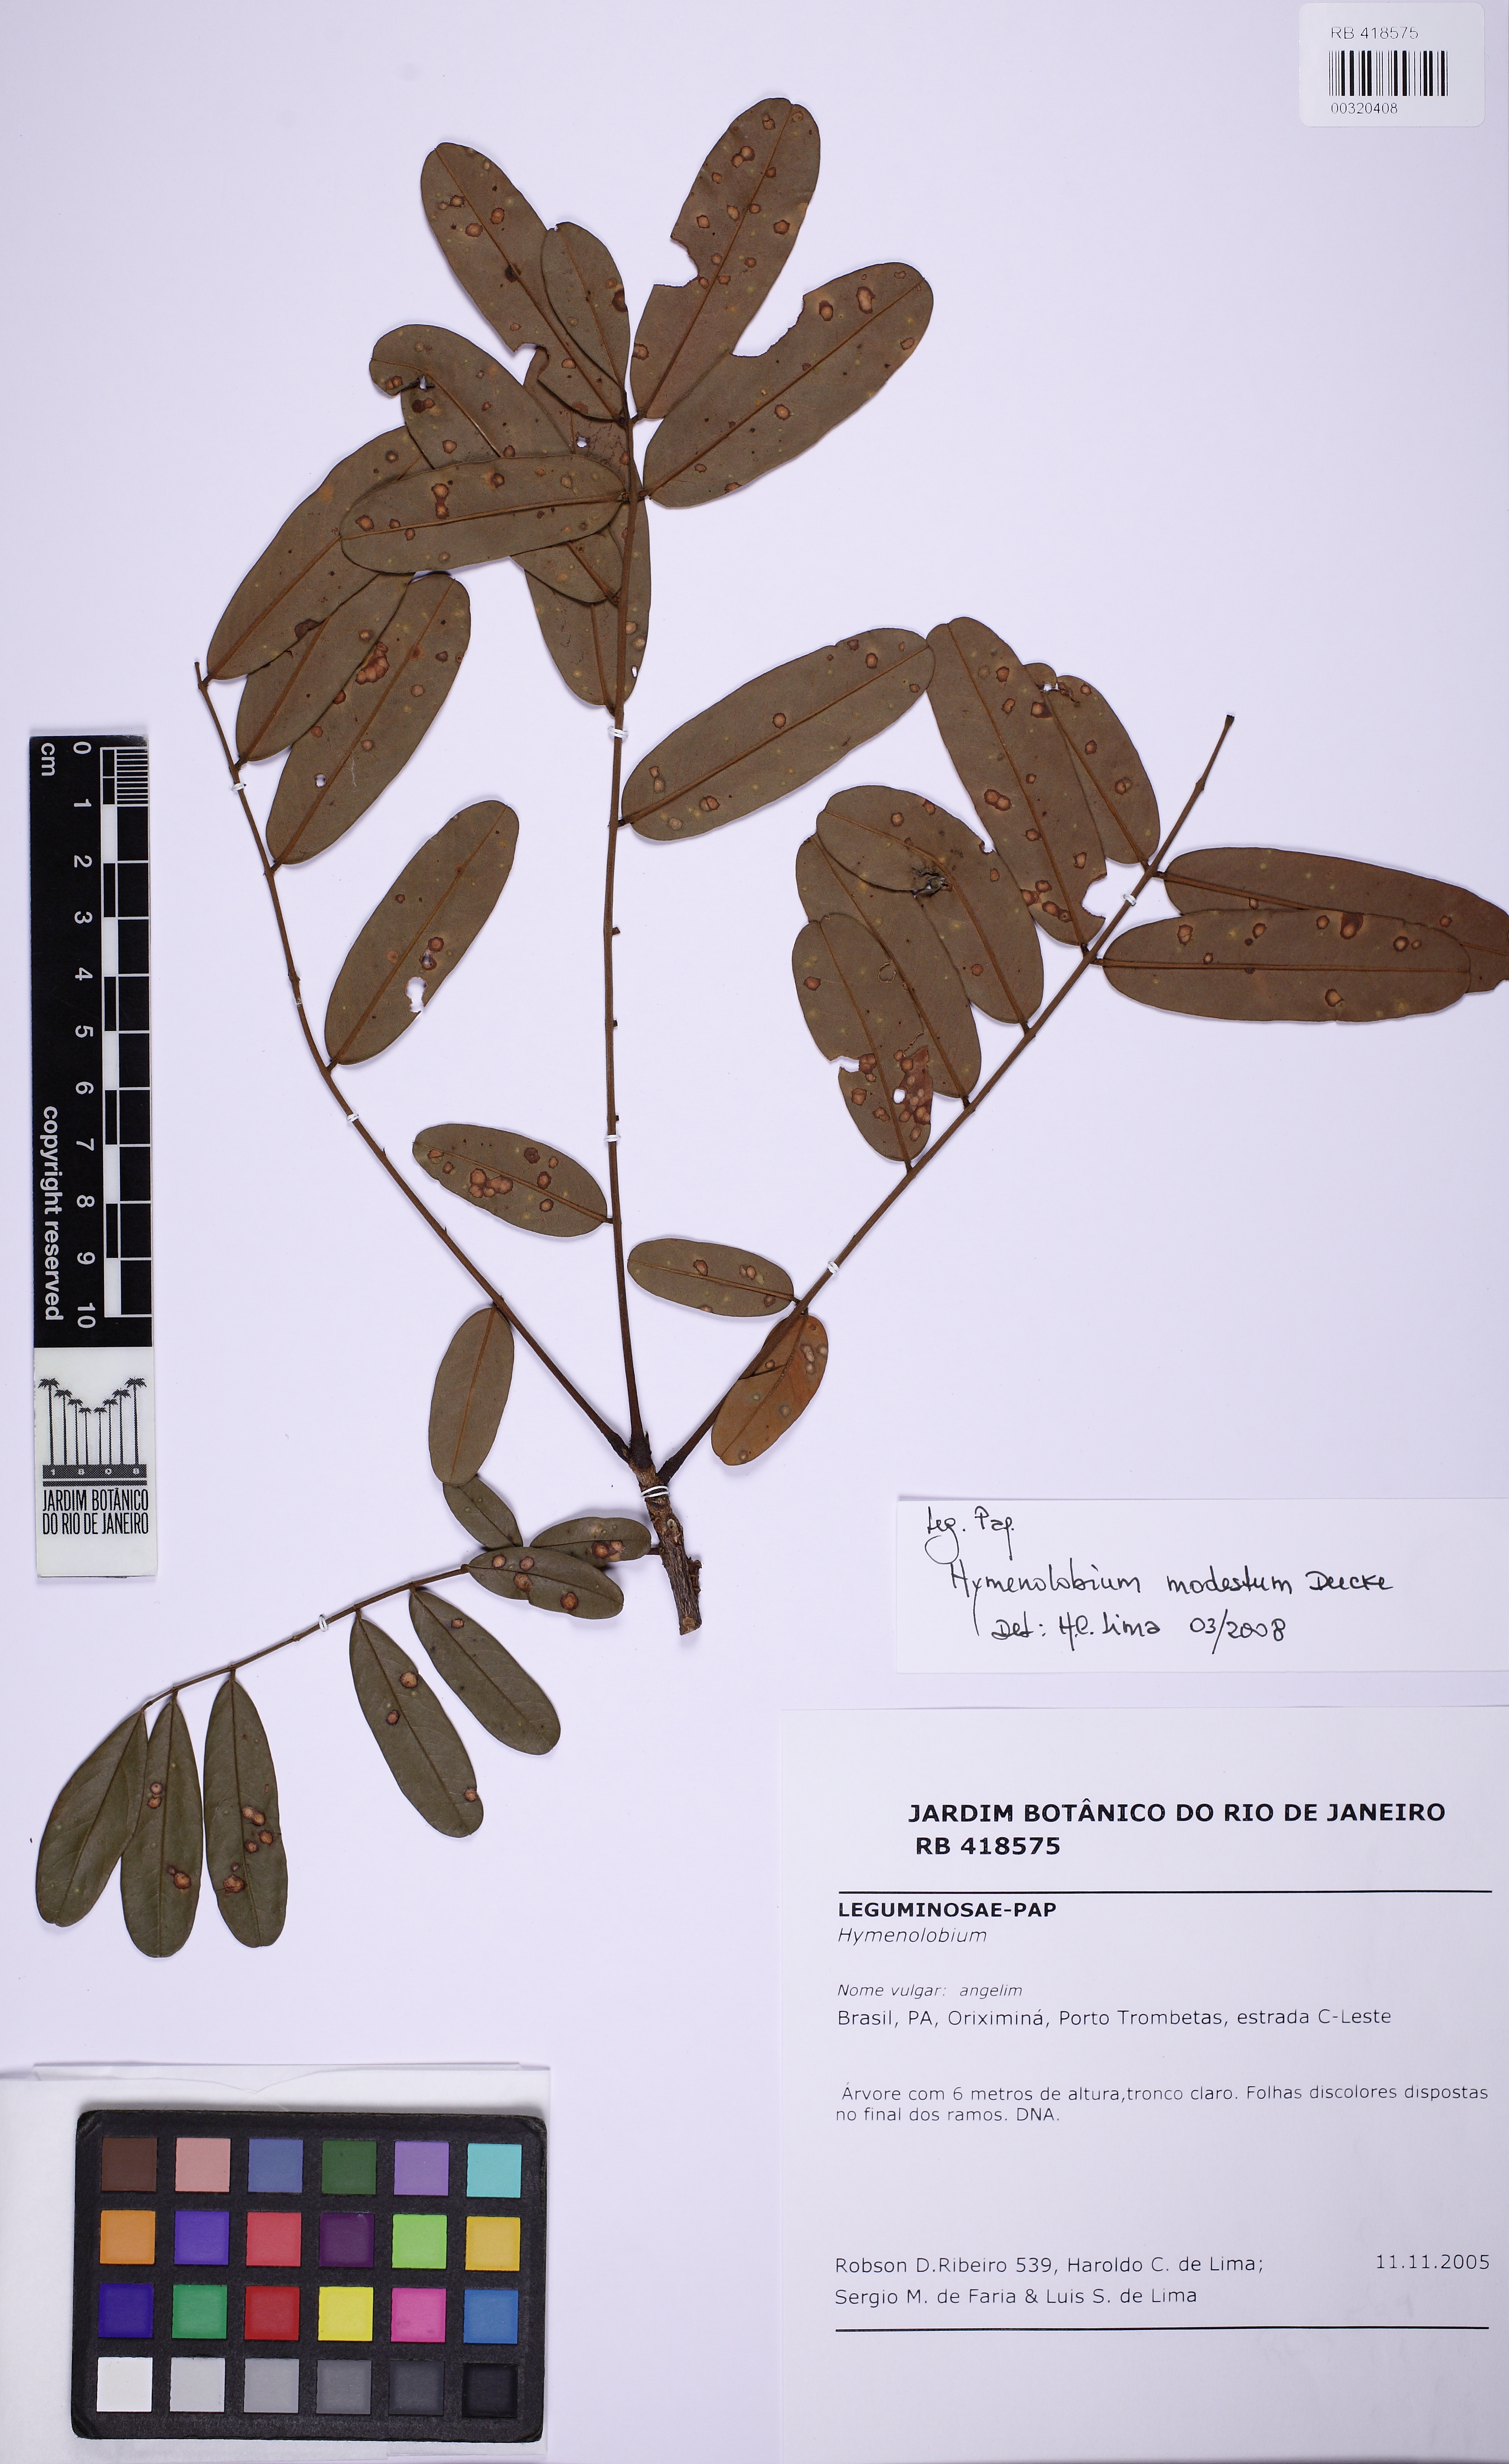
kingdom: Plantae
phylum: Tracheophyta
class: Magnoliopsida
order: Fabales
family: Fabaceae
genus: Hymenolobium
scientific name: Hymenolobium modestum
